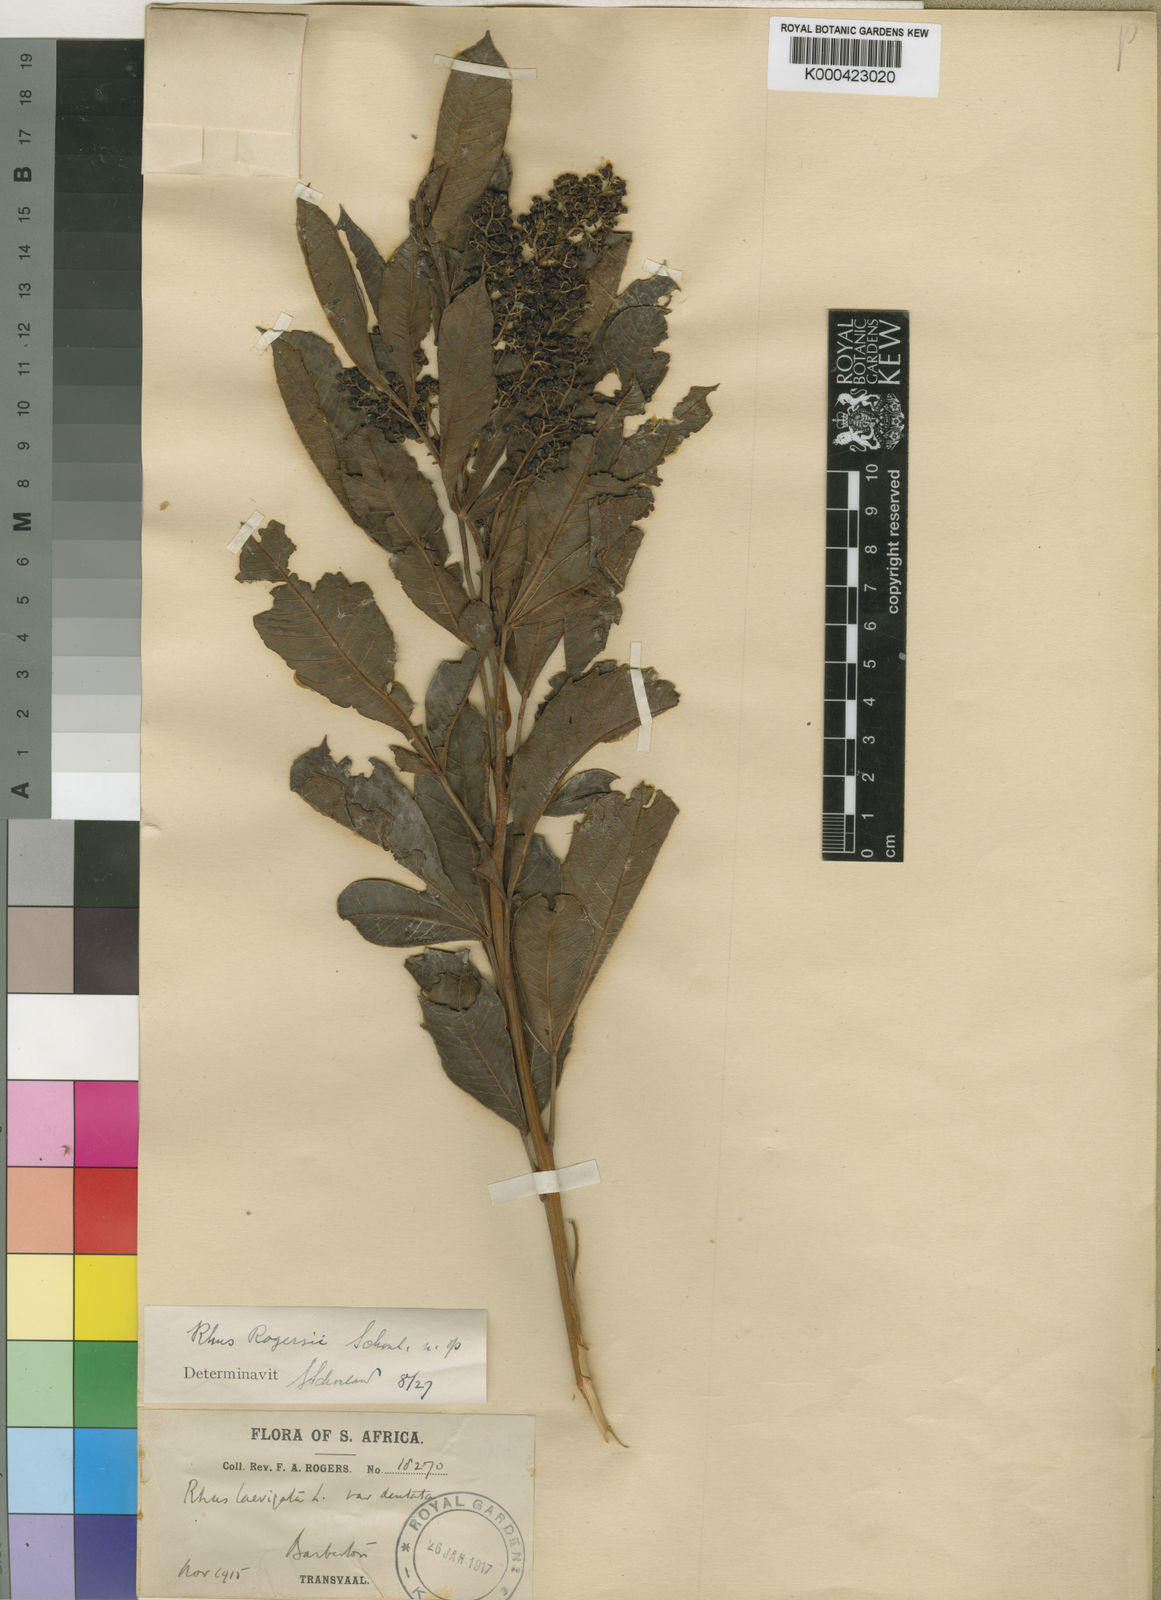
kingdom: Plantae
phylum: Tracheophyta
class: Magnoliopsida
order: Sapindales
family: Anacardiaceae
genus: Rhus
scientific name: Rhus
